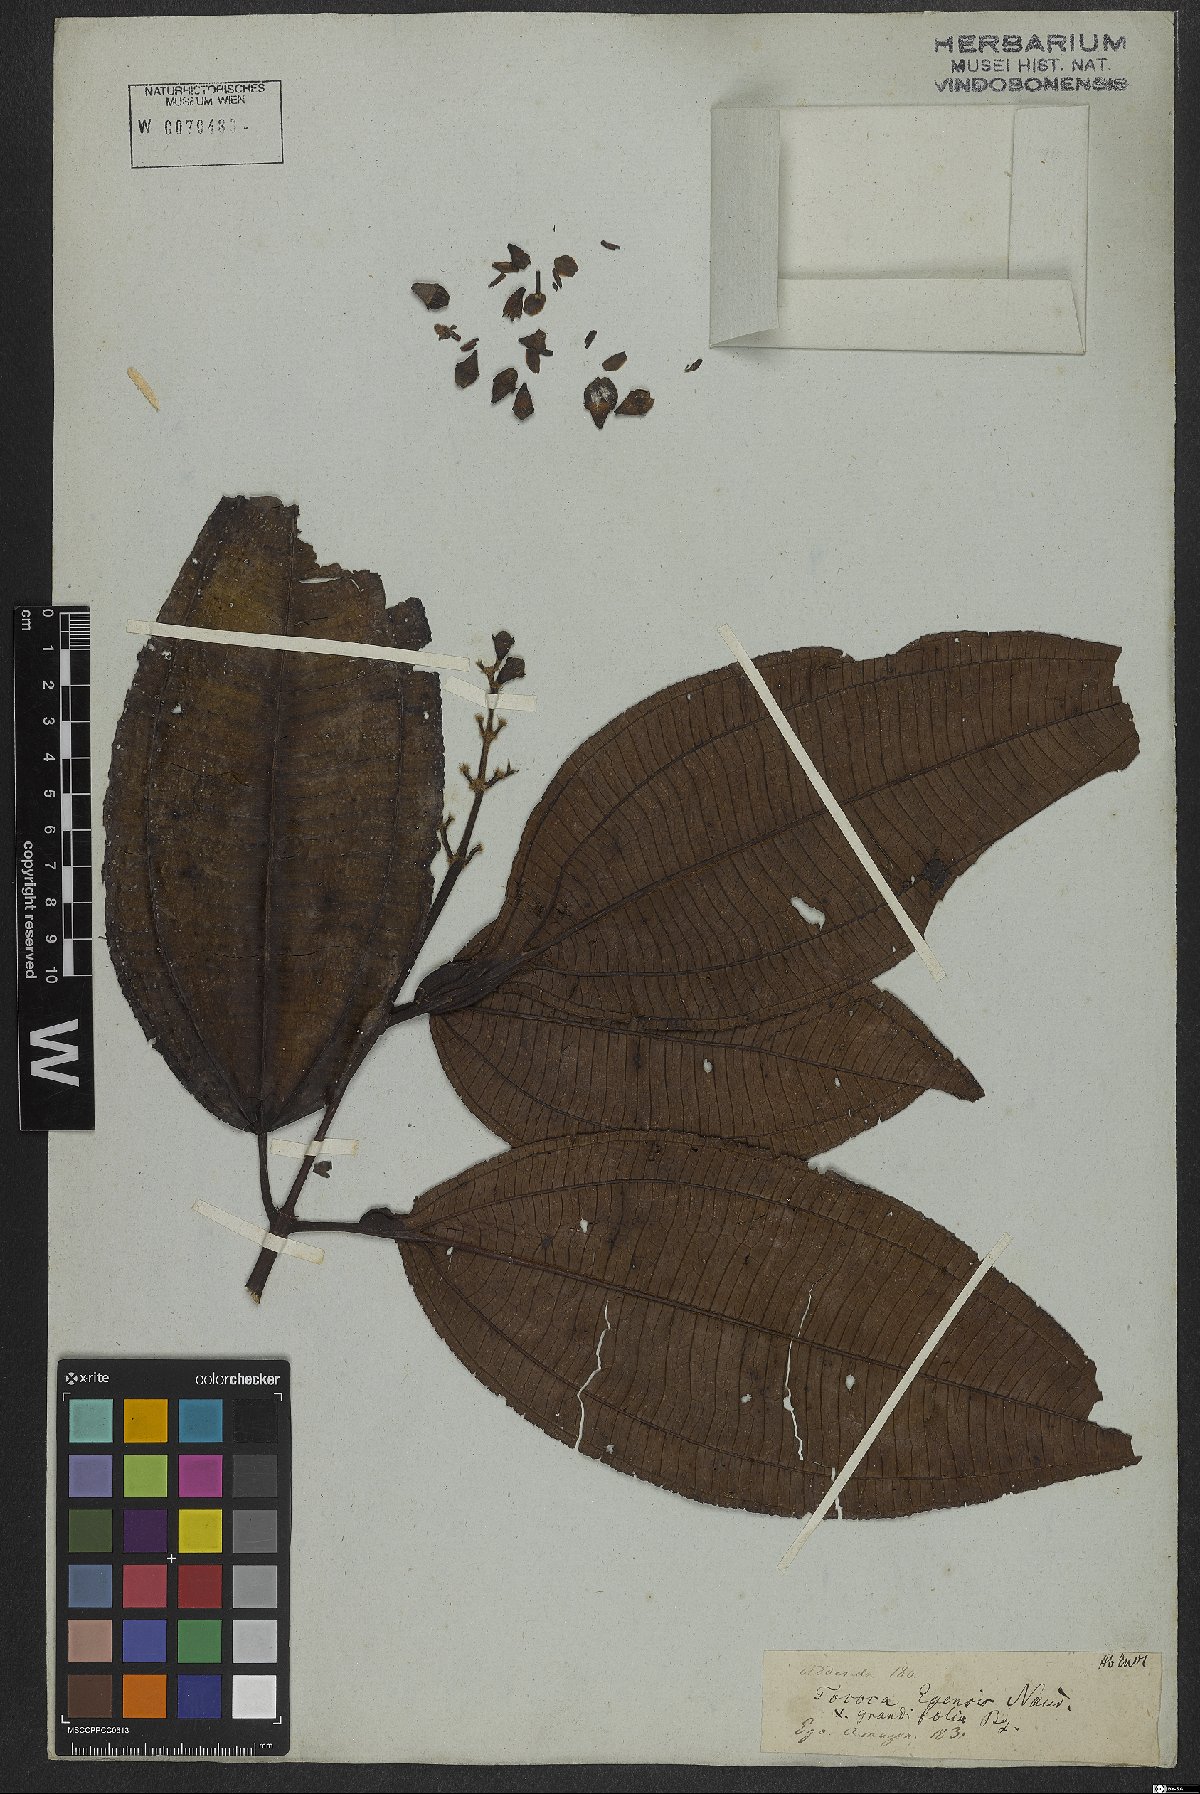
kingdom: Plantae
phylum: Tracheophyta
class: Magnoliopsida
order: Myrtales
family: Melastomataceae
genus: Miconia
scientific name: Miconia tococoronata
